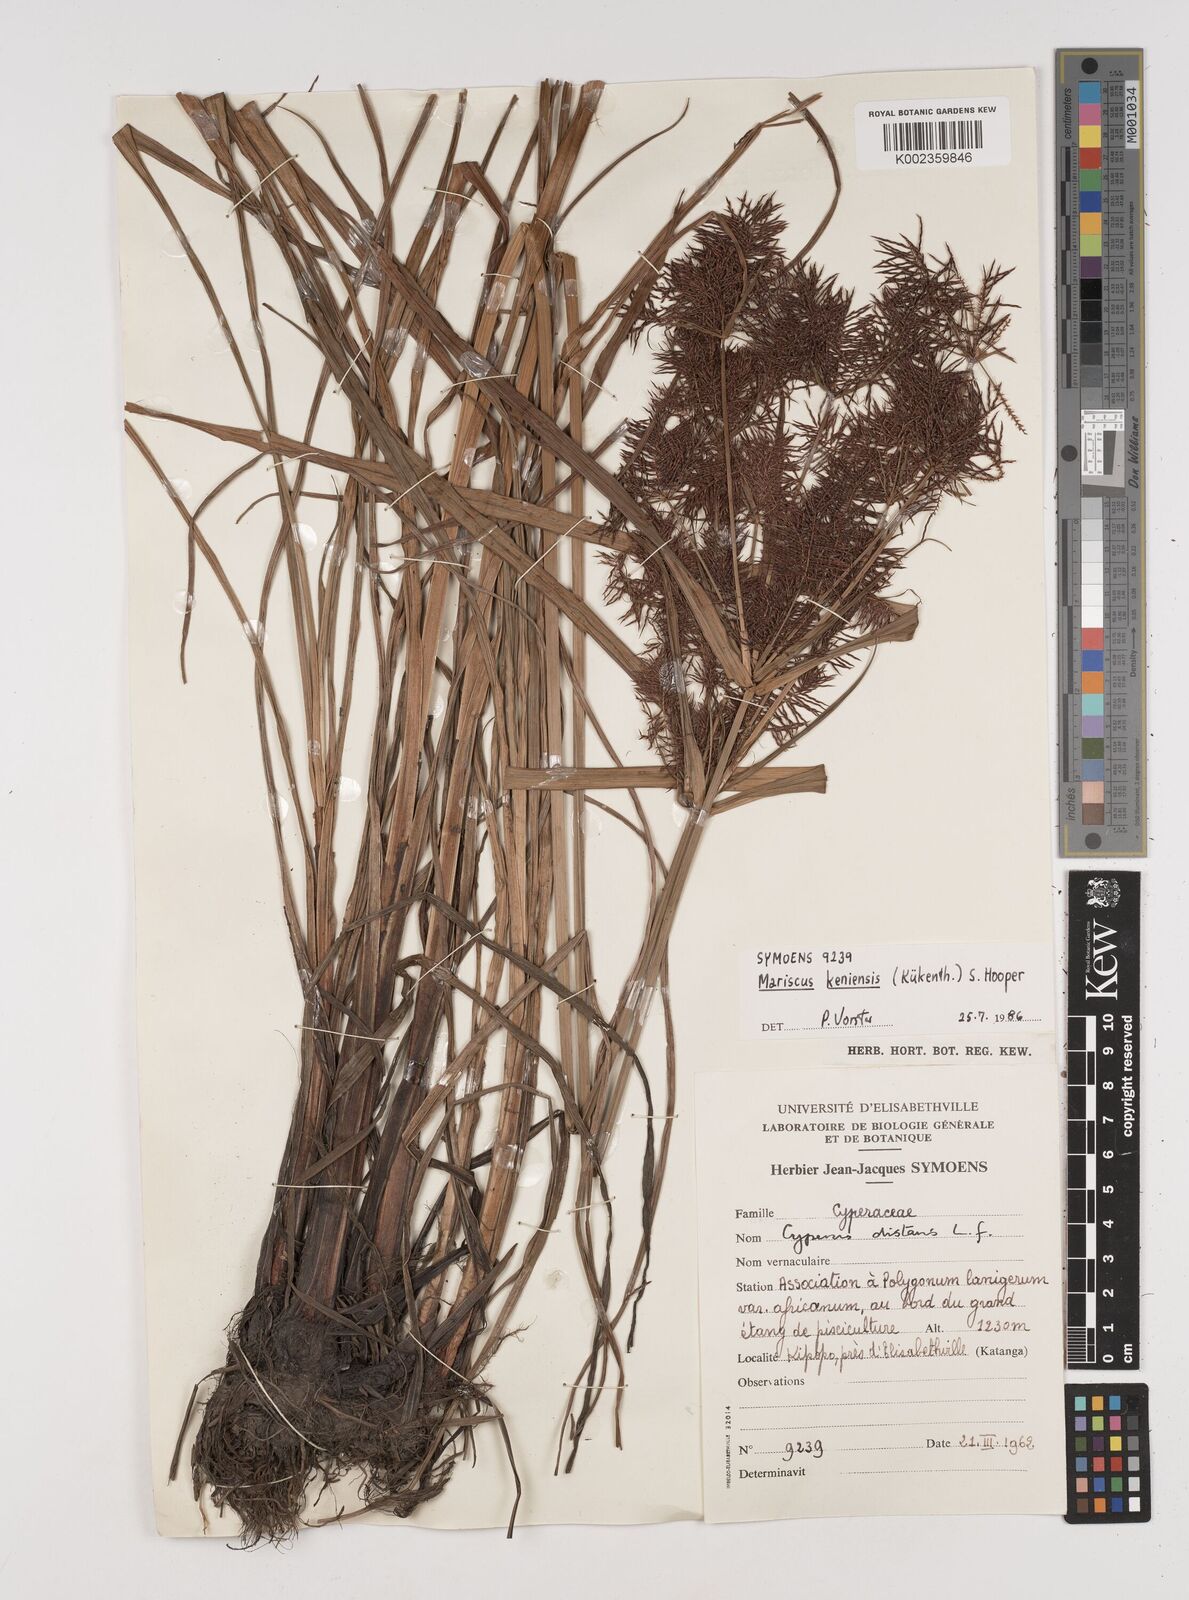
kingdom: Plantae
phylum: Tracheophyta
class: Liliopsida
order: Poales
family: Cyperaceae
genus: Cyperus
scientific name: Cyperus distans
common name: Slender cyperus
